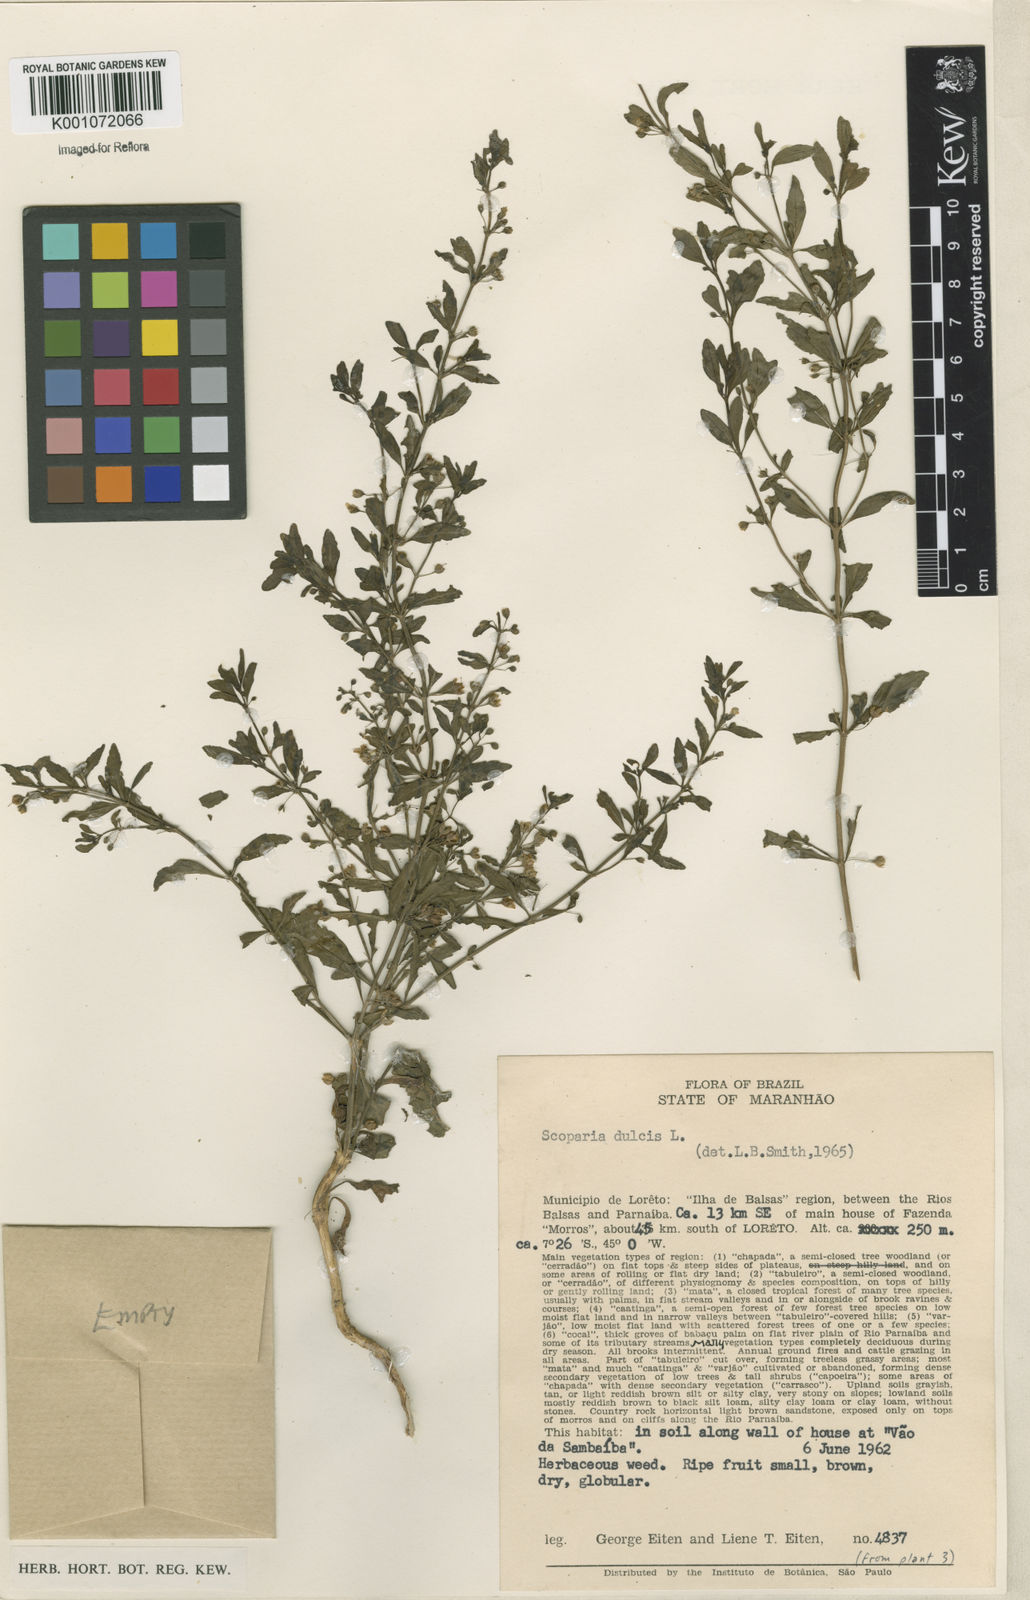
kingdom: Plantae
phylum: Tracheophyta
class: Magnoliopsida
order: Lamiales
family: Plantaginaceae
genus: Scoparia
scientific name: Scoparia dulcis
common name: Scoparia-weed
